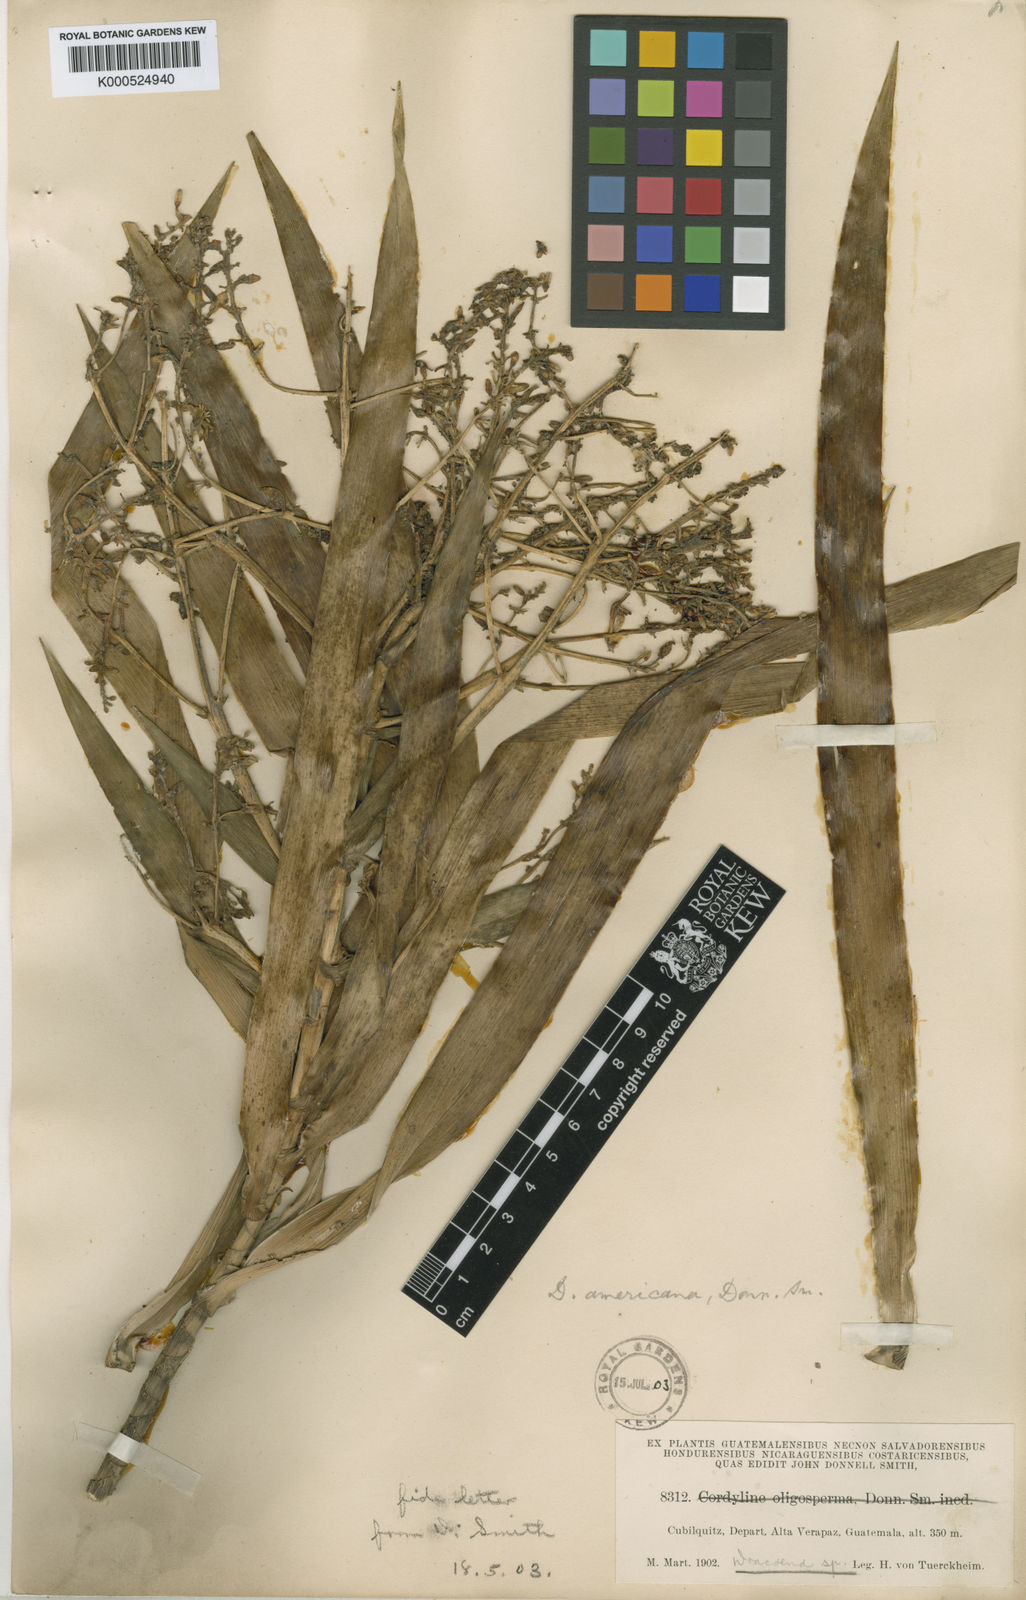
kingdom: Plantae
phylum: Tracheophyta
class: Liliopsida
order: Asparagales
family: Asparagaceae
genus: Dracaena
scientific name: Dracaena
